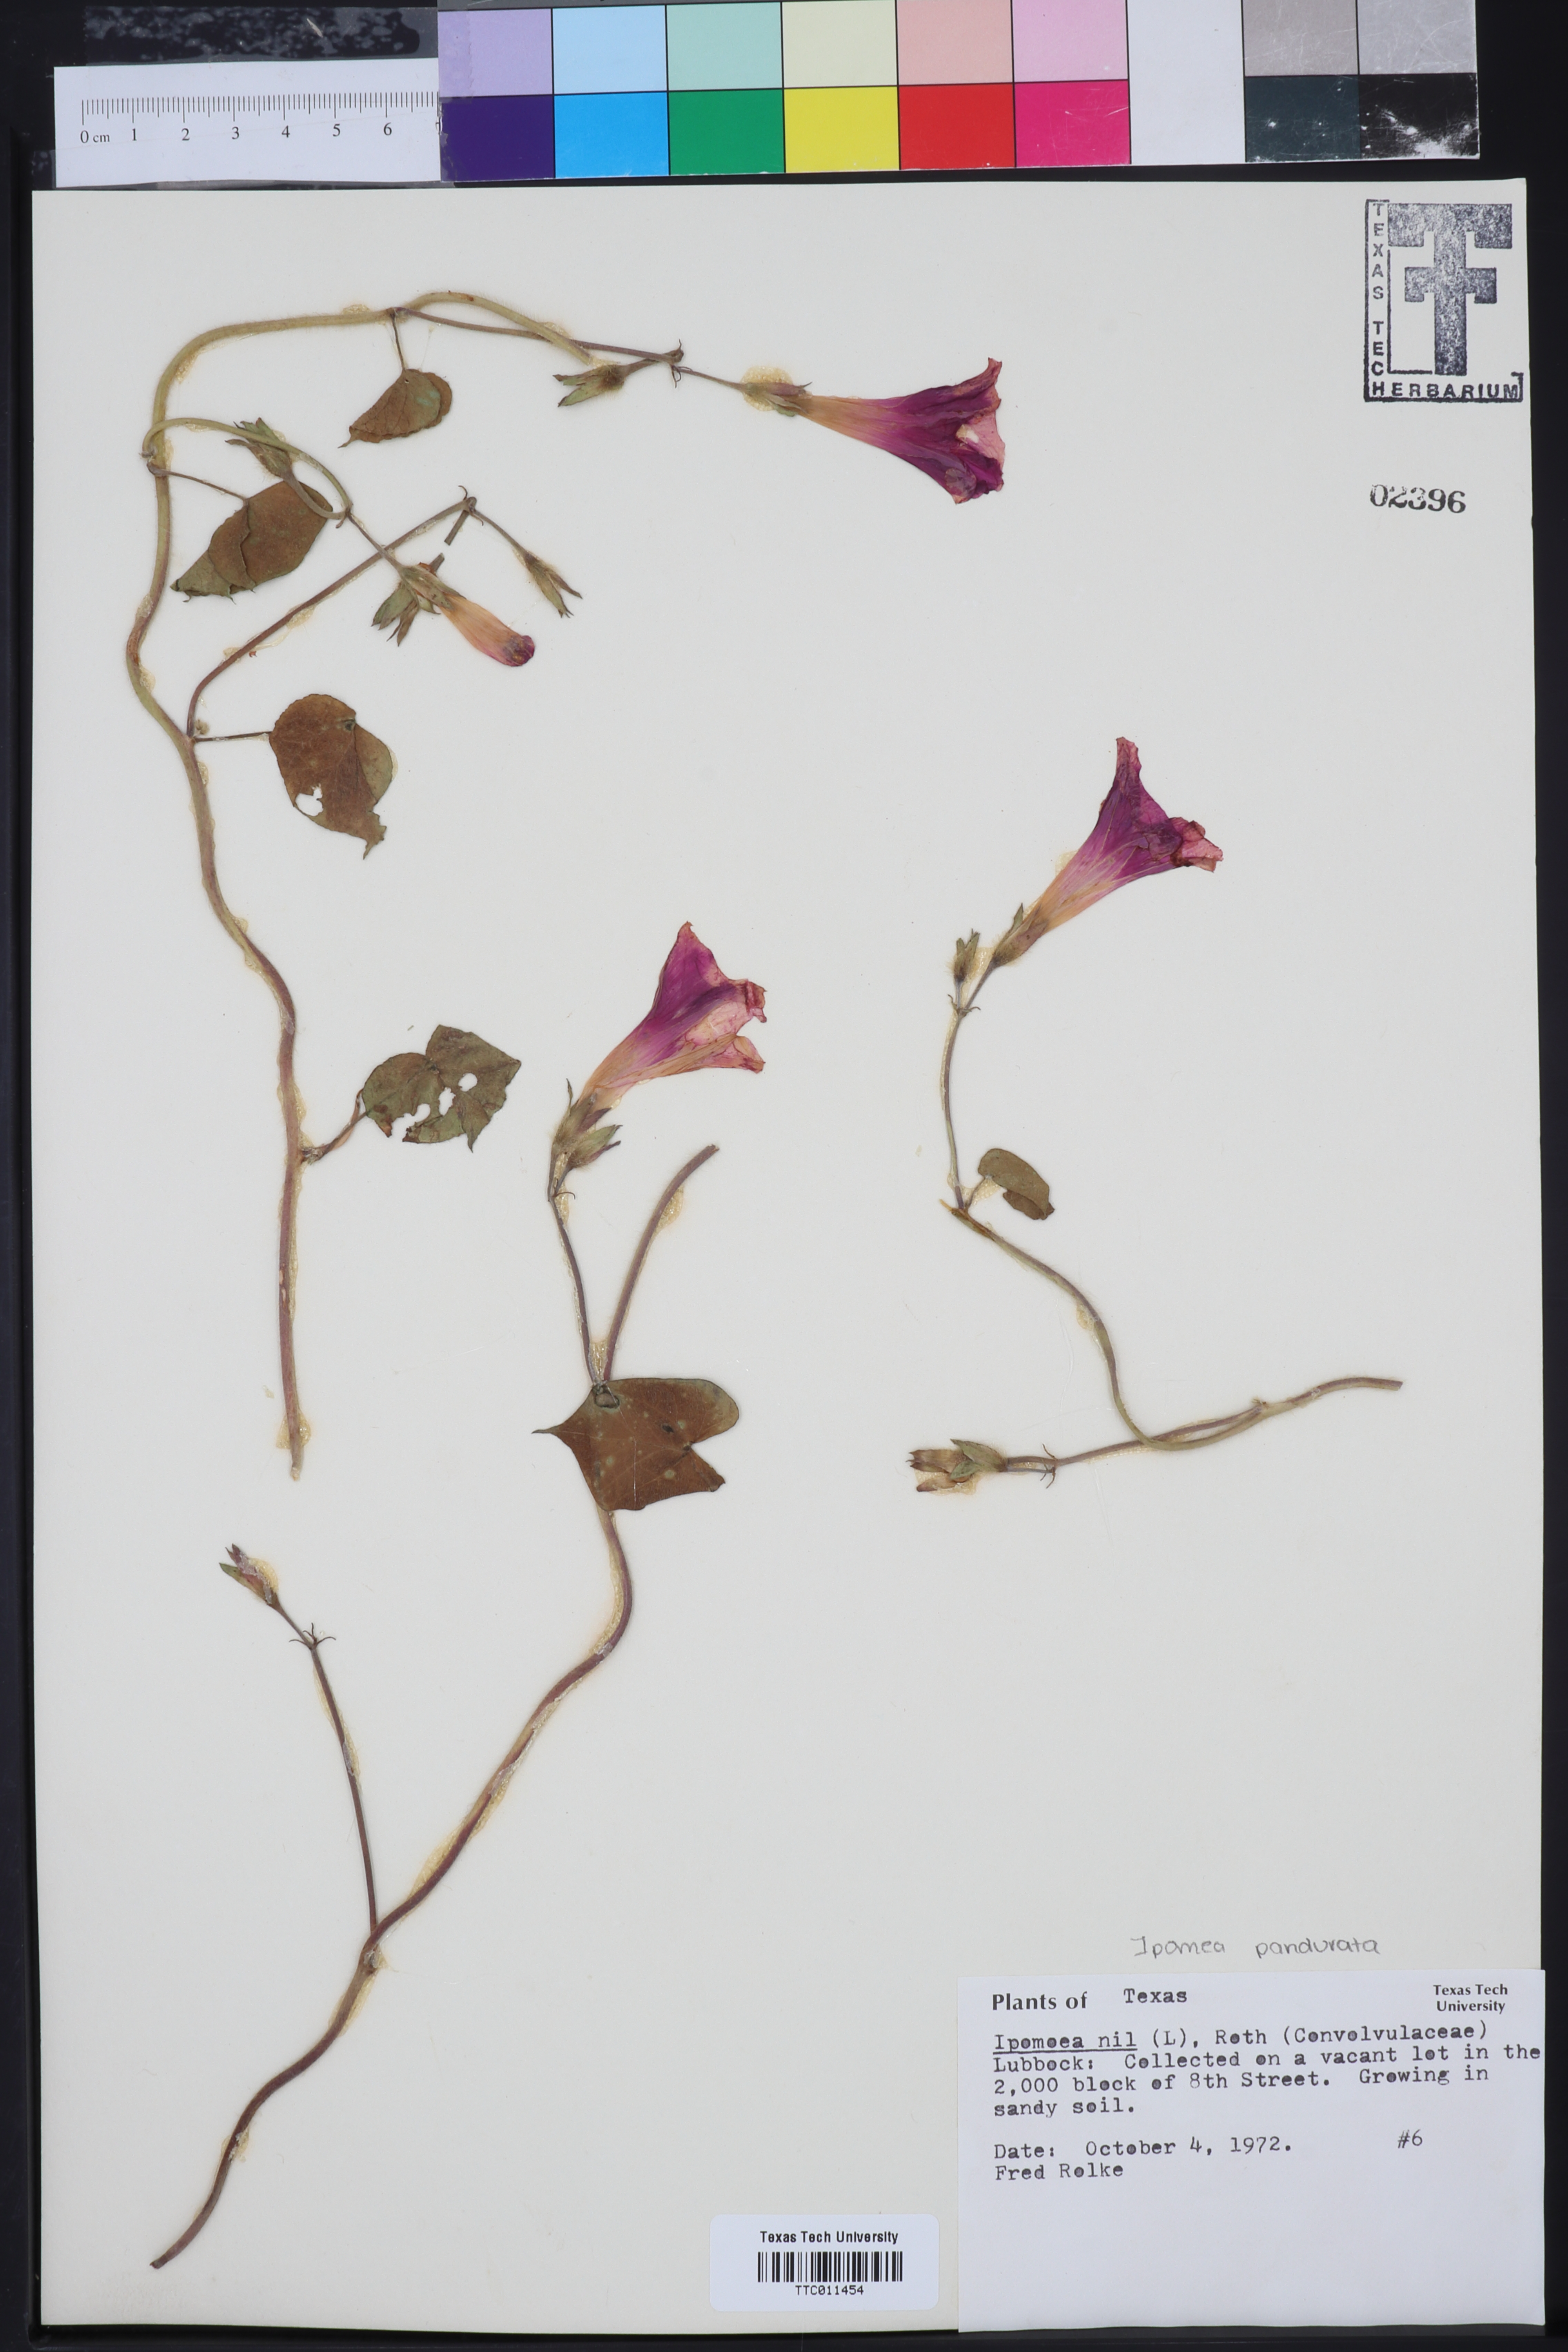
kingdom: Plantae
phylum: Tracheophyta
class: Magnoliopsida
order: Solanales
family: Convolvulaceae
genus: Ipomoea
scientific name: Ipomoea nil
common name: Japanese morning-glory
